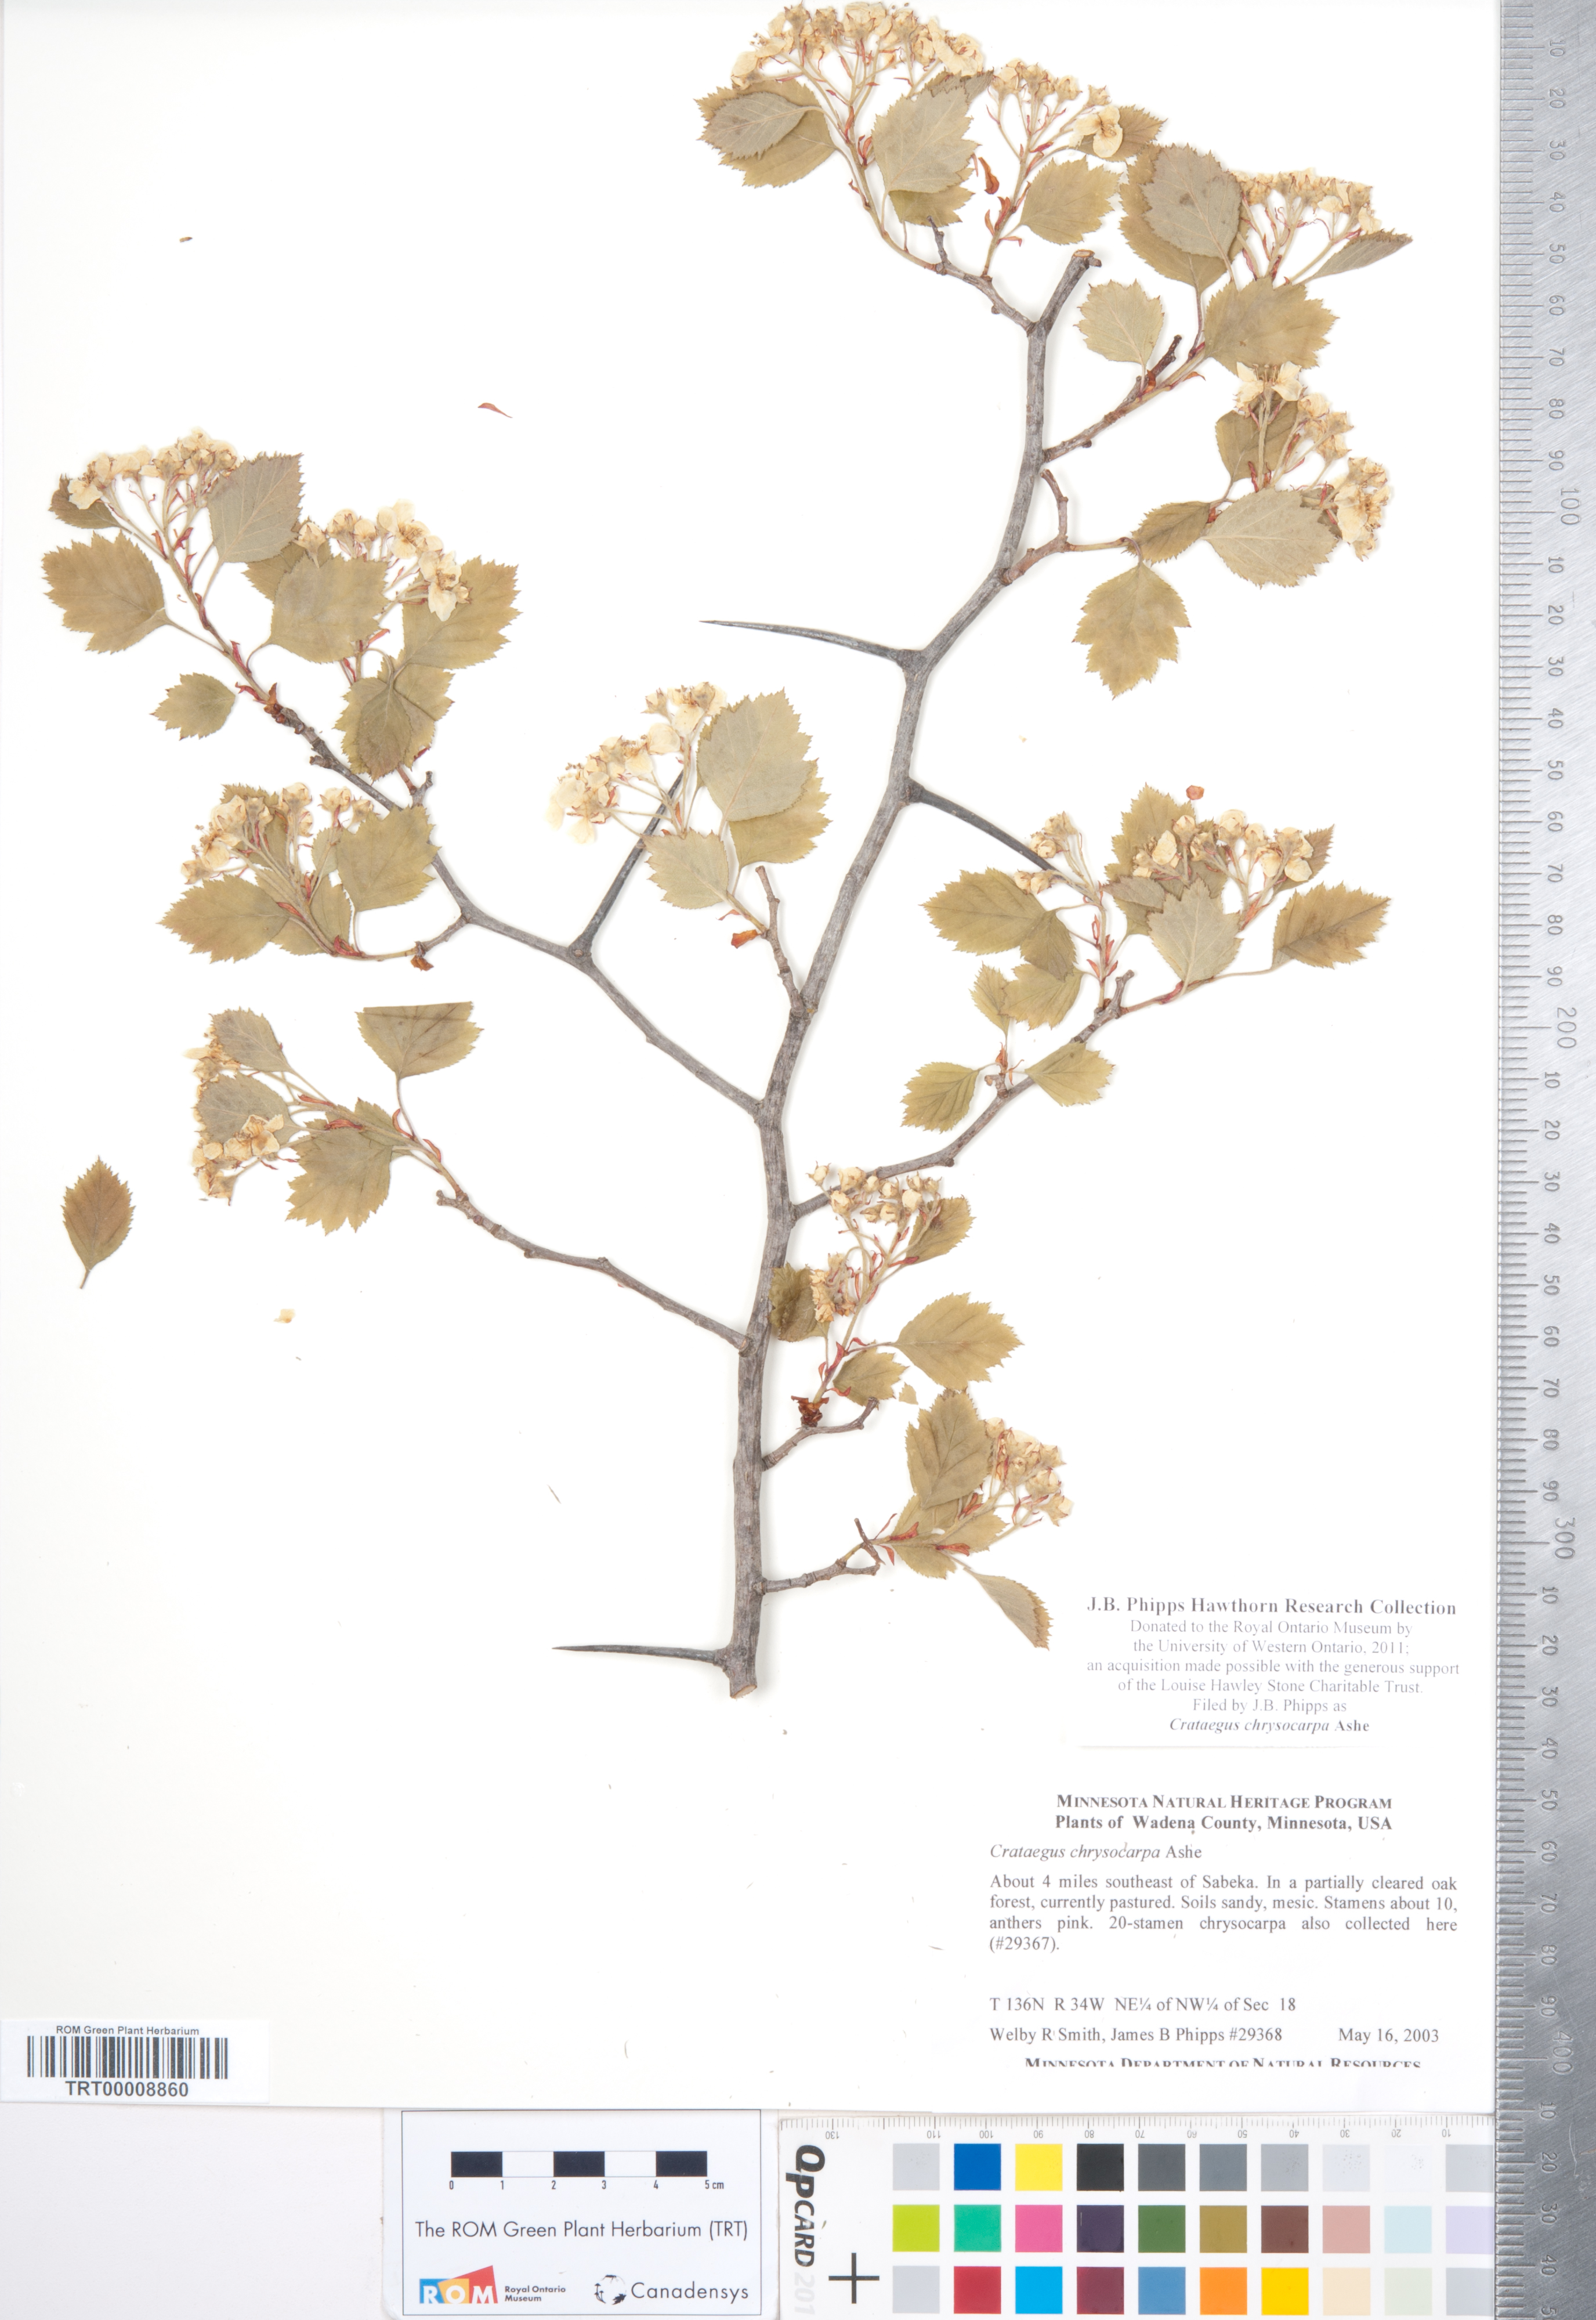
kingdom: Plantae
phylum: Tracheophyta
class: Magnoliopsida
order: Rosales
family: Rosaceae
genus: Crataegus
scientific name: Crataegus chrysocarpa
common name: Fire-berry hawthorn
